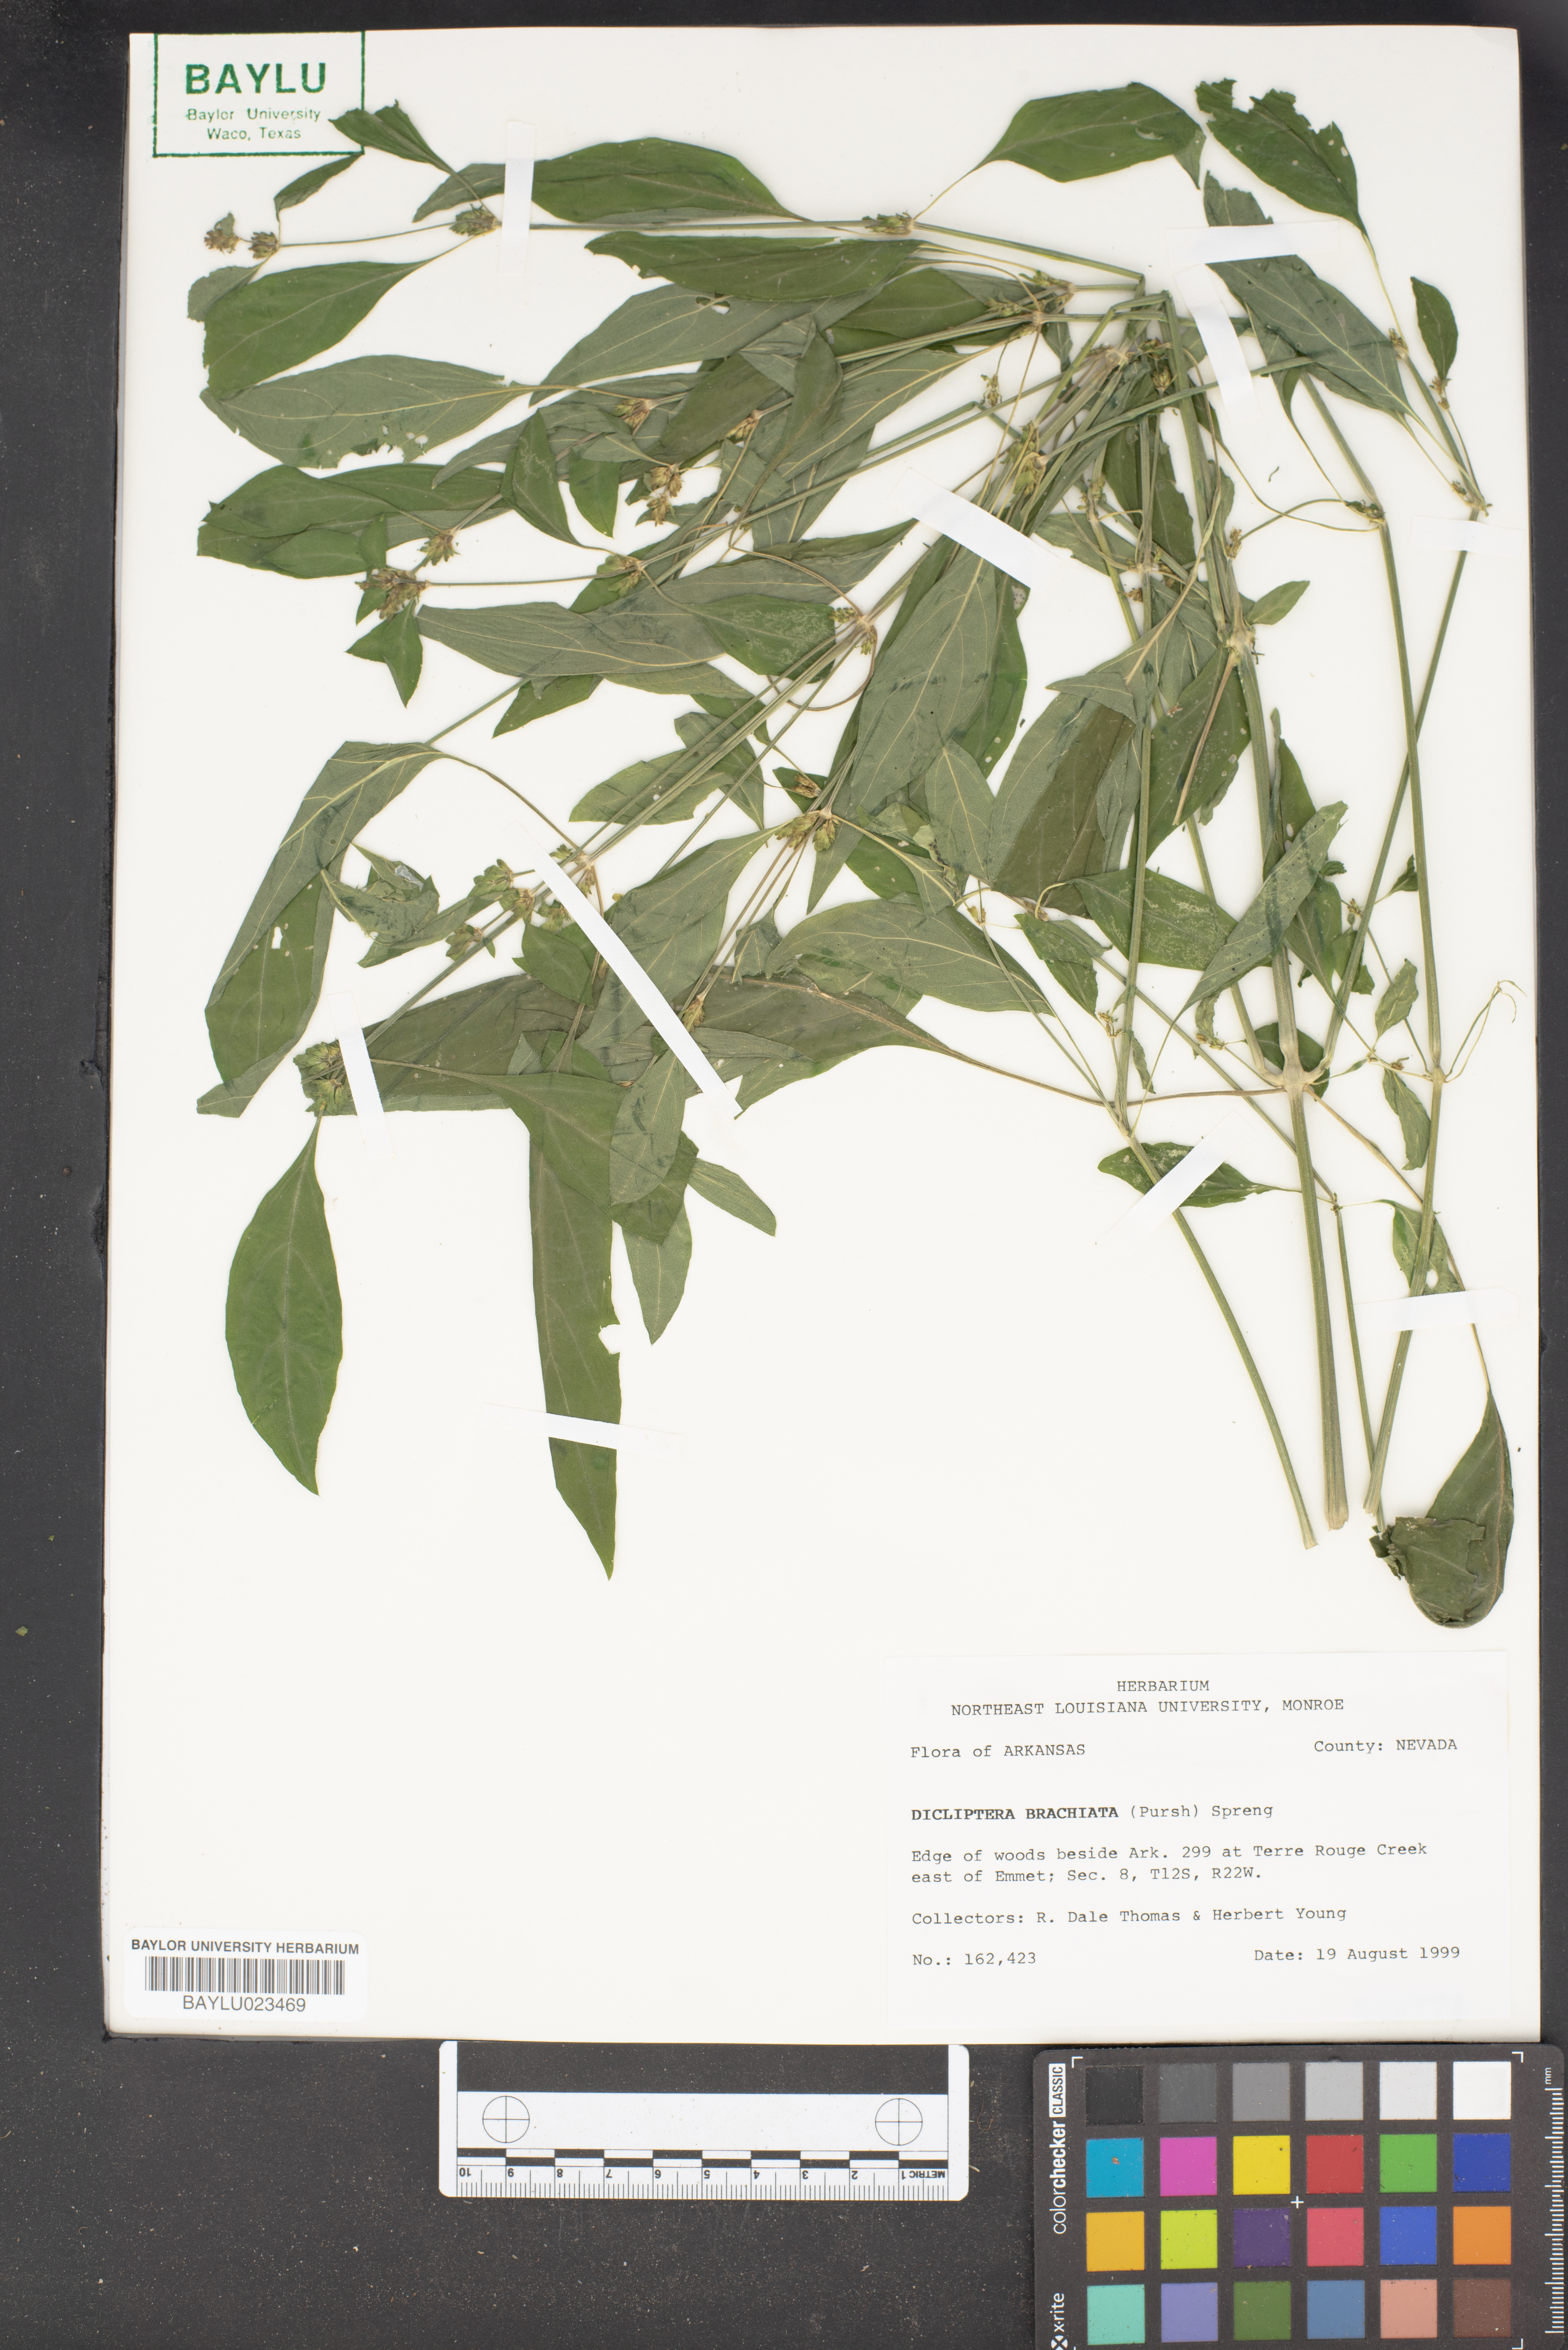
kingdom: Plantae
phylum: Tracheophyta
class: Magnoliopsida
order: Lamiales
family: Acanthaceae
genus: Dicliptera
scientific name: Dicliptera brachiata
